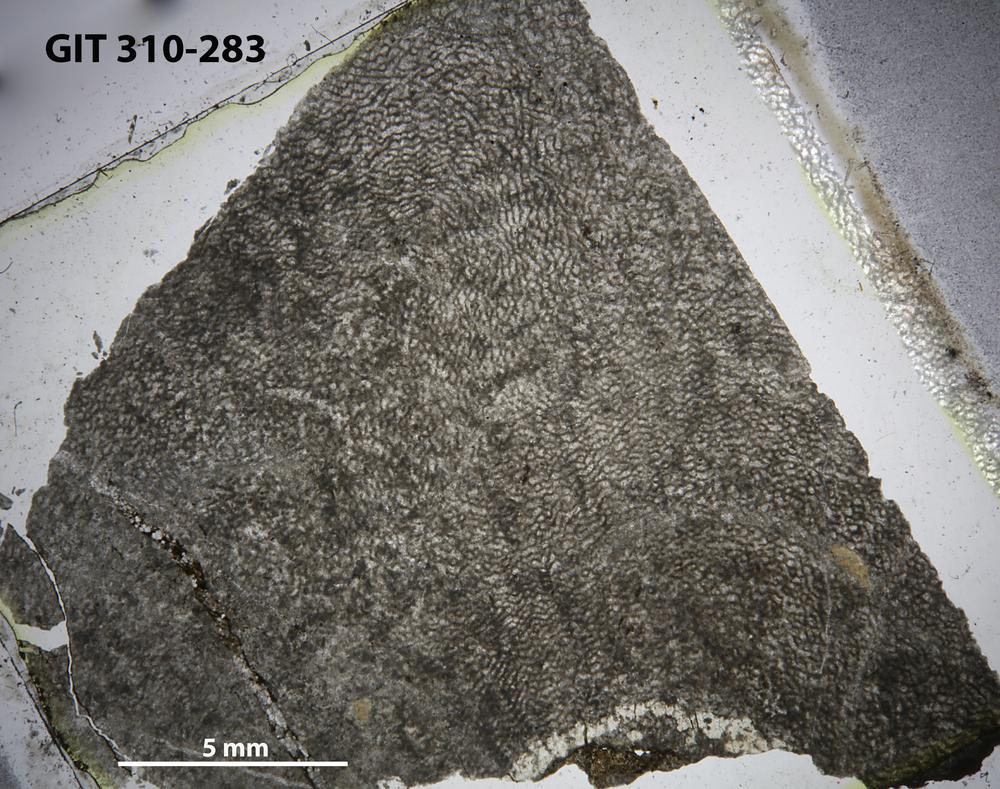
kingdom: Animalia
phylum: Porifera
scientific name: Porifera
